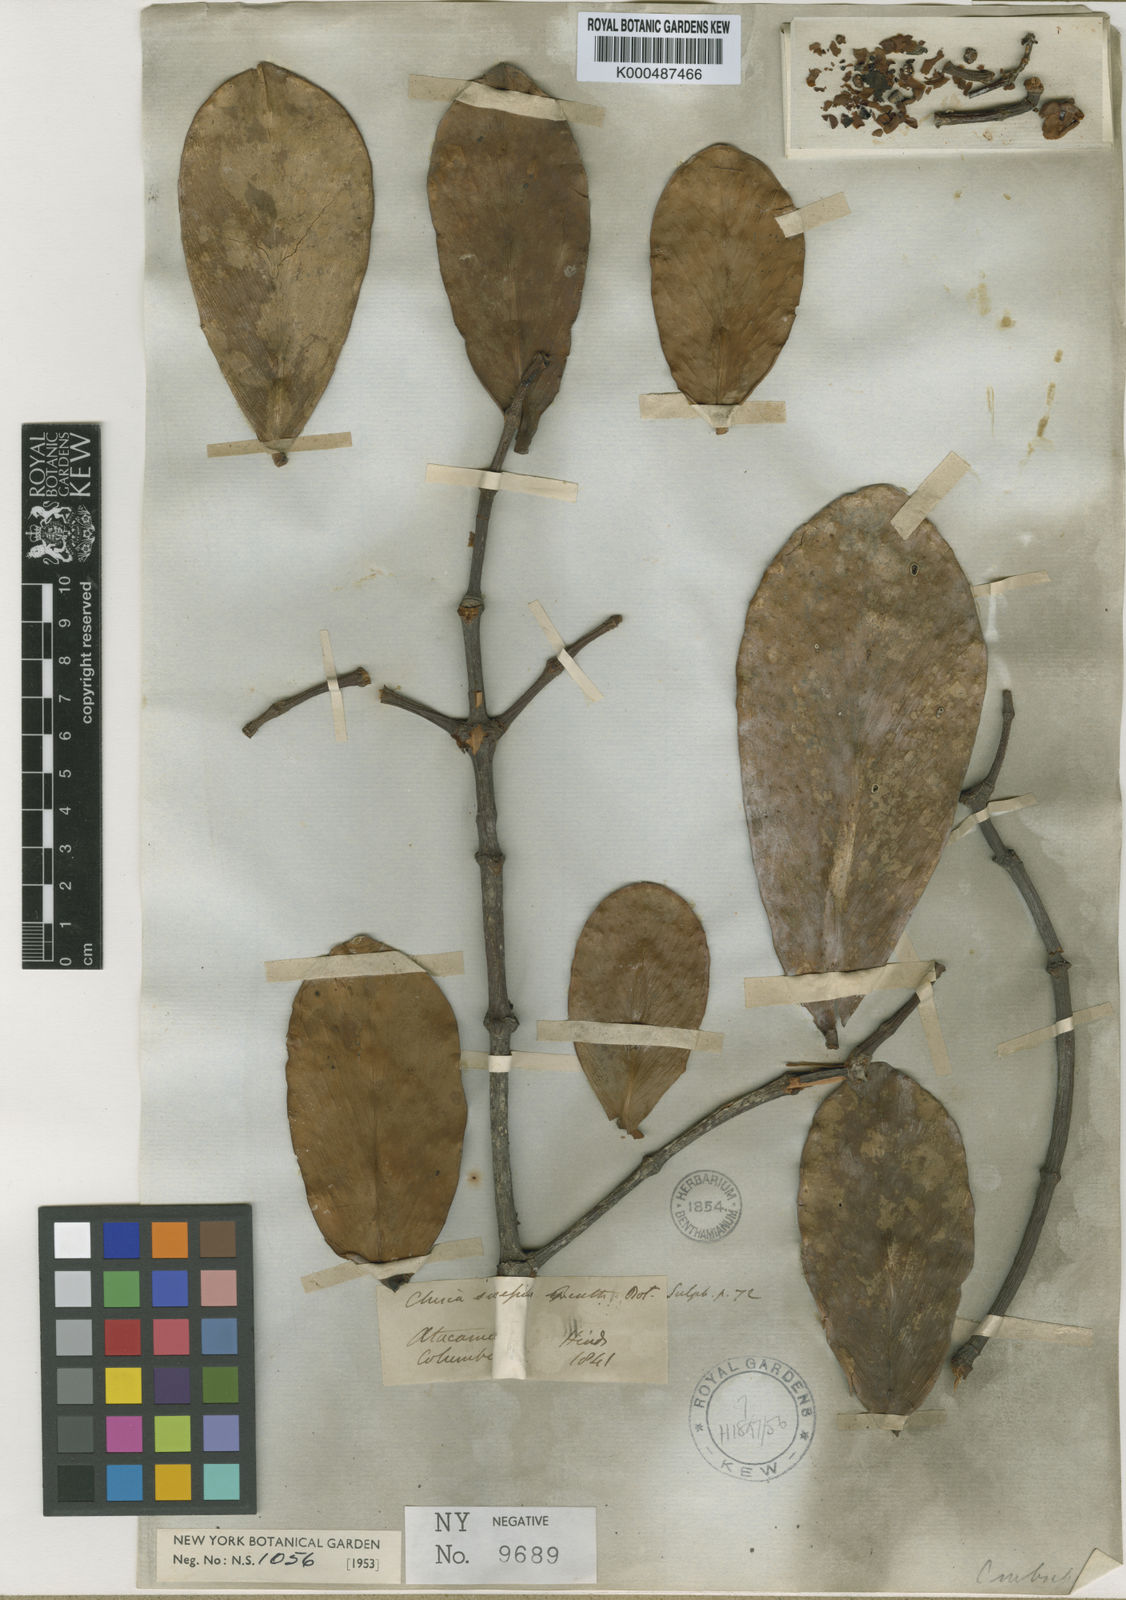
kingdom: Plantae
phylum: Tracheophyta
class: Magnoliopsida
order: Malpighiales
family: Clusiaceae
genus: Clusia
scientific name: Clusia subsessilis
